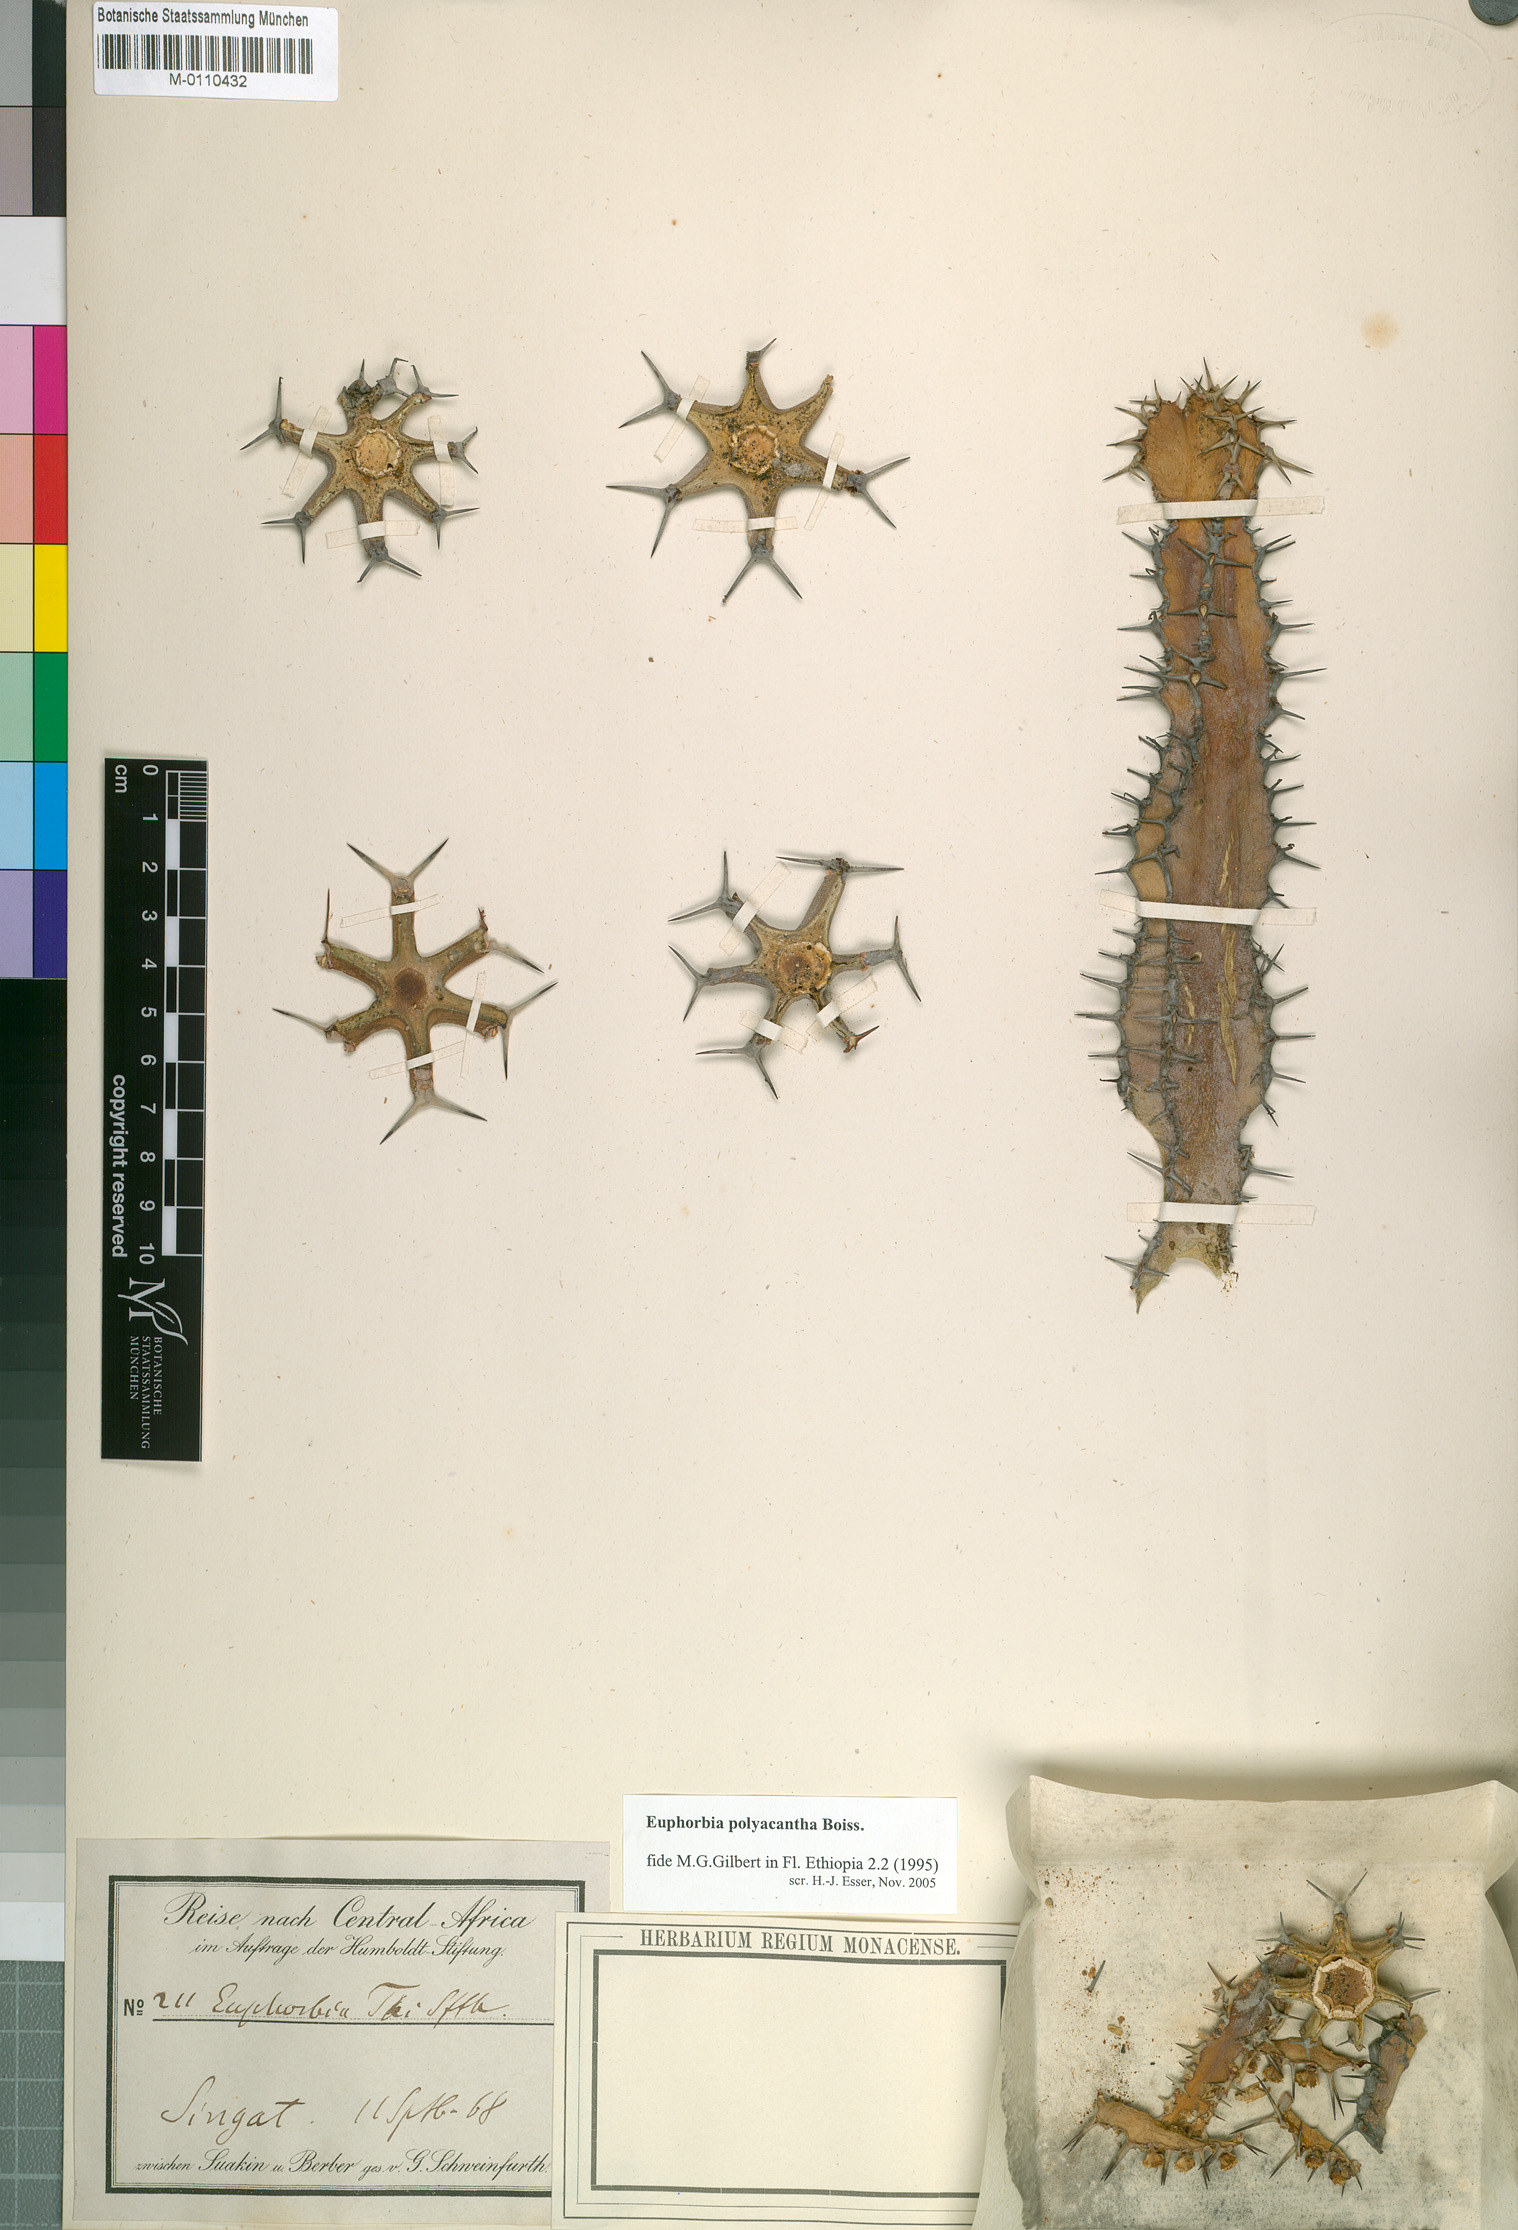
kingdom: Plantae
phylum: Tracheophyta
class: Magnoliopsida
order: Malpighiales
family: Euphorbiaceae
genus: Euphorbia
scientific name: Euphorbia polyacantha
